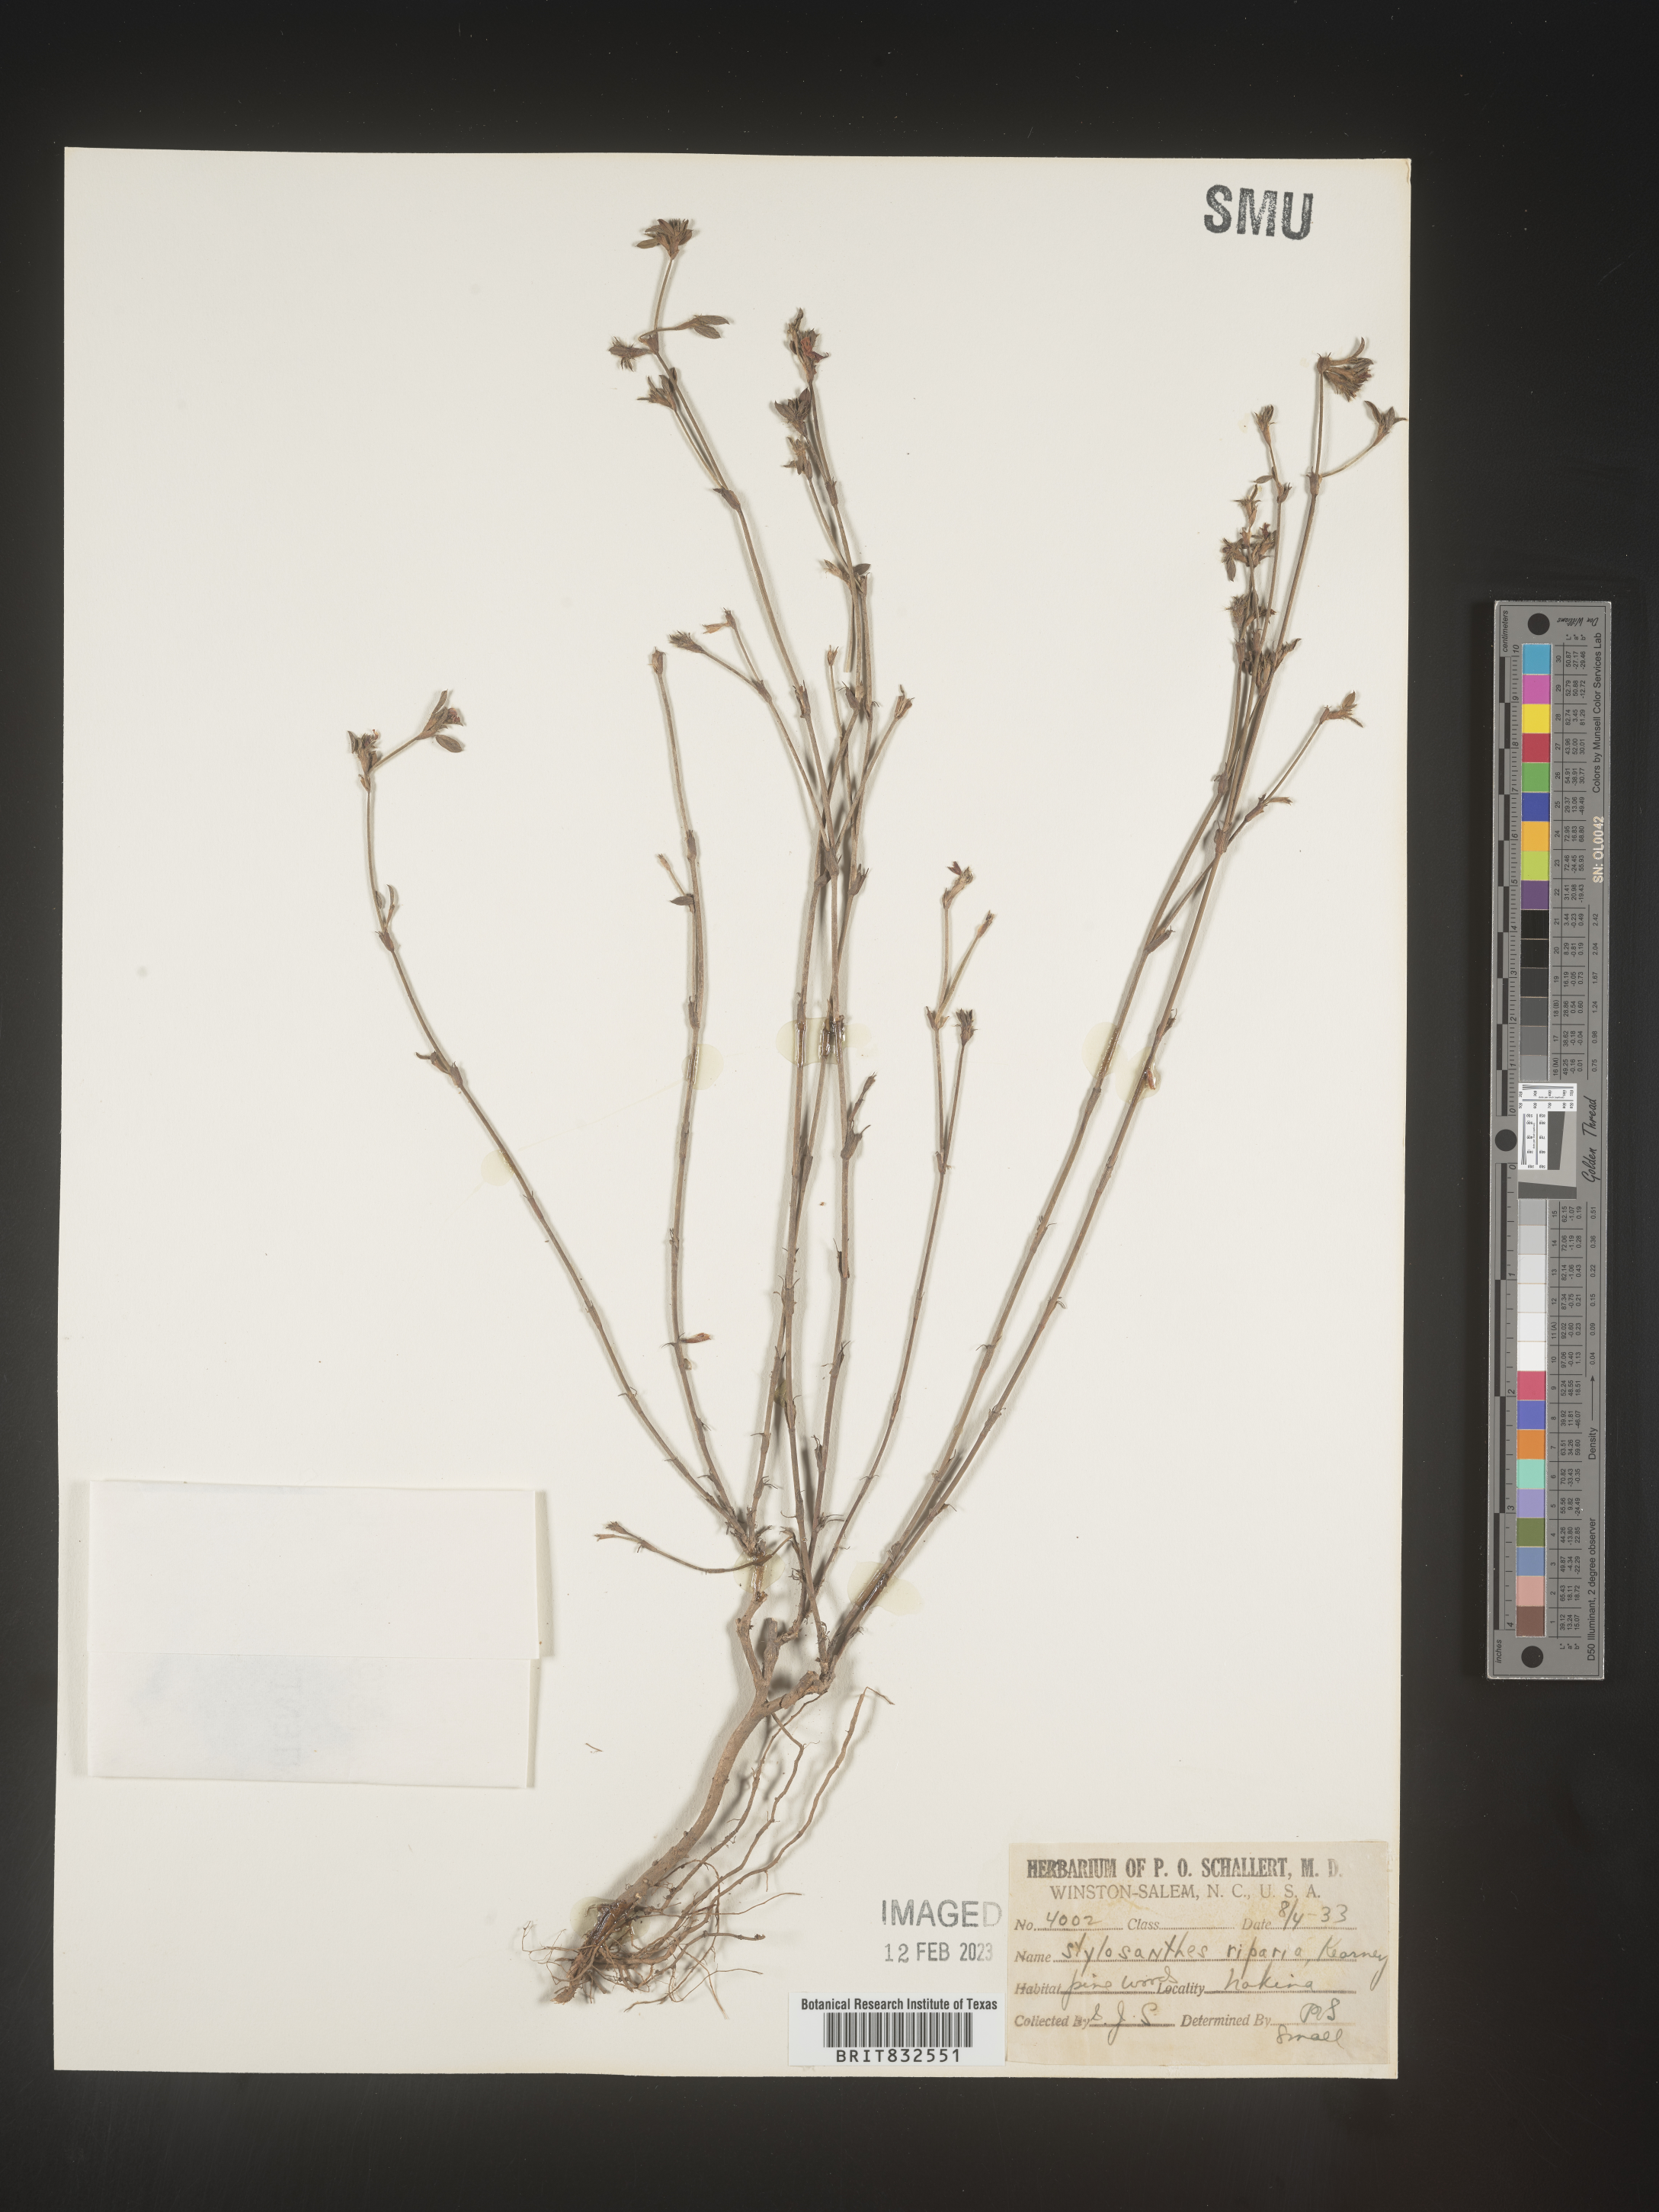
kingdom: Plantae
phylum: Tracheophyta
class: Magnoliopsida
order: Fabales
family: Fabaceae
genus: Stylosanthes
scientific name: Stylosanthes
